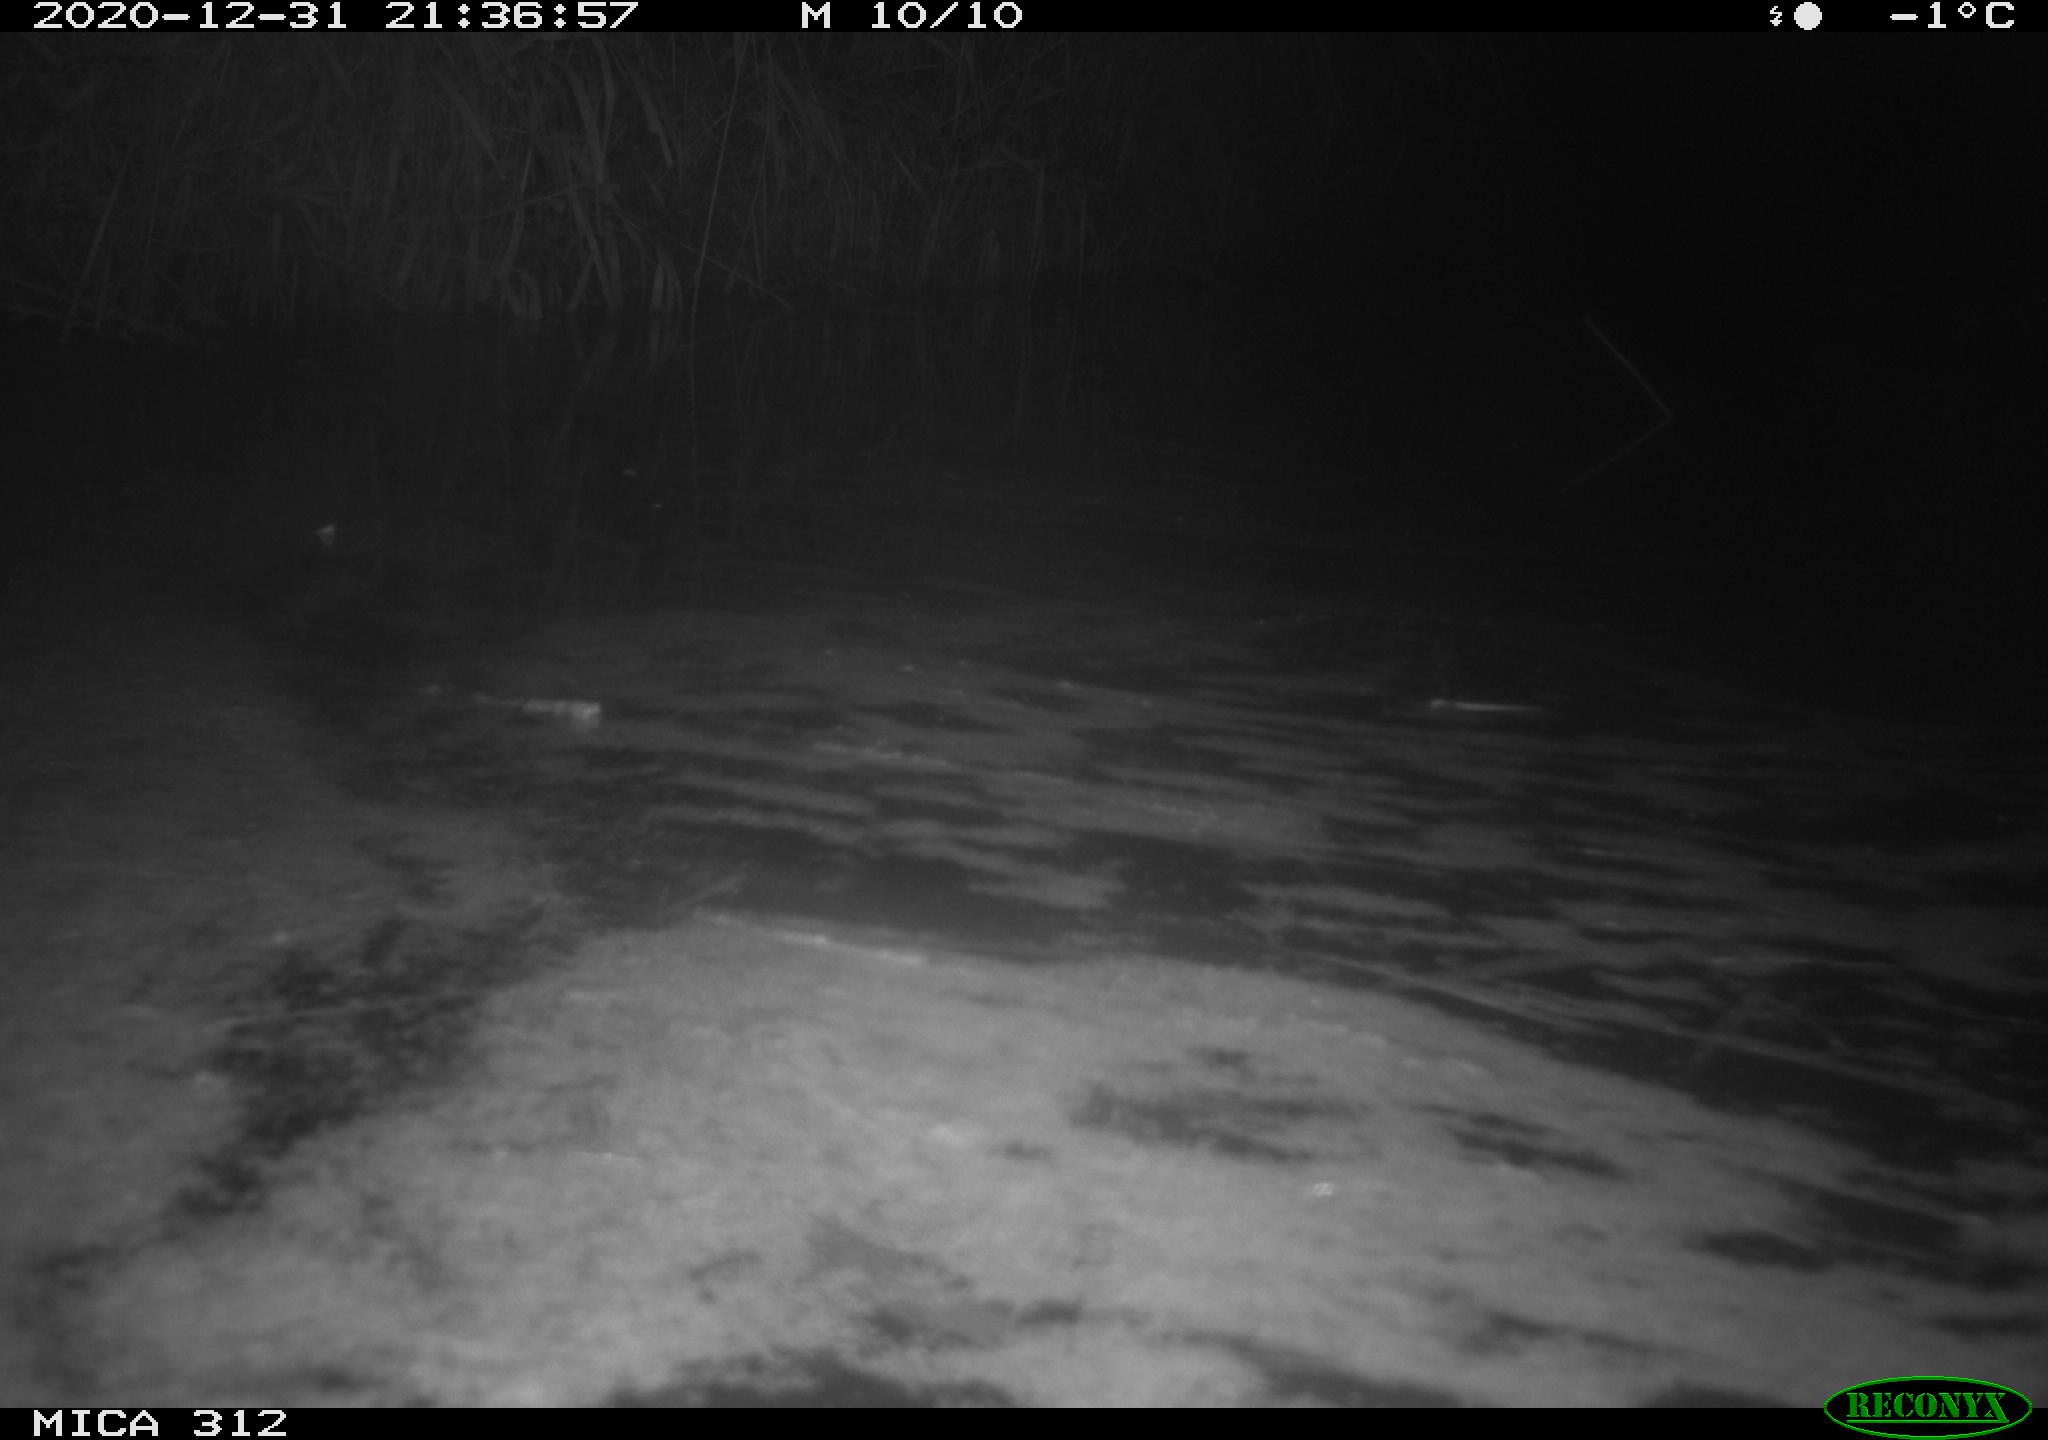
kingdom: Animalia
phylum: Chordata
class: Mammalia
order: Rodentia
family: Muridae
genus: Rattus
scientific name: Rattus norvegicus
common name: Brown rat
